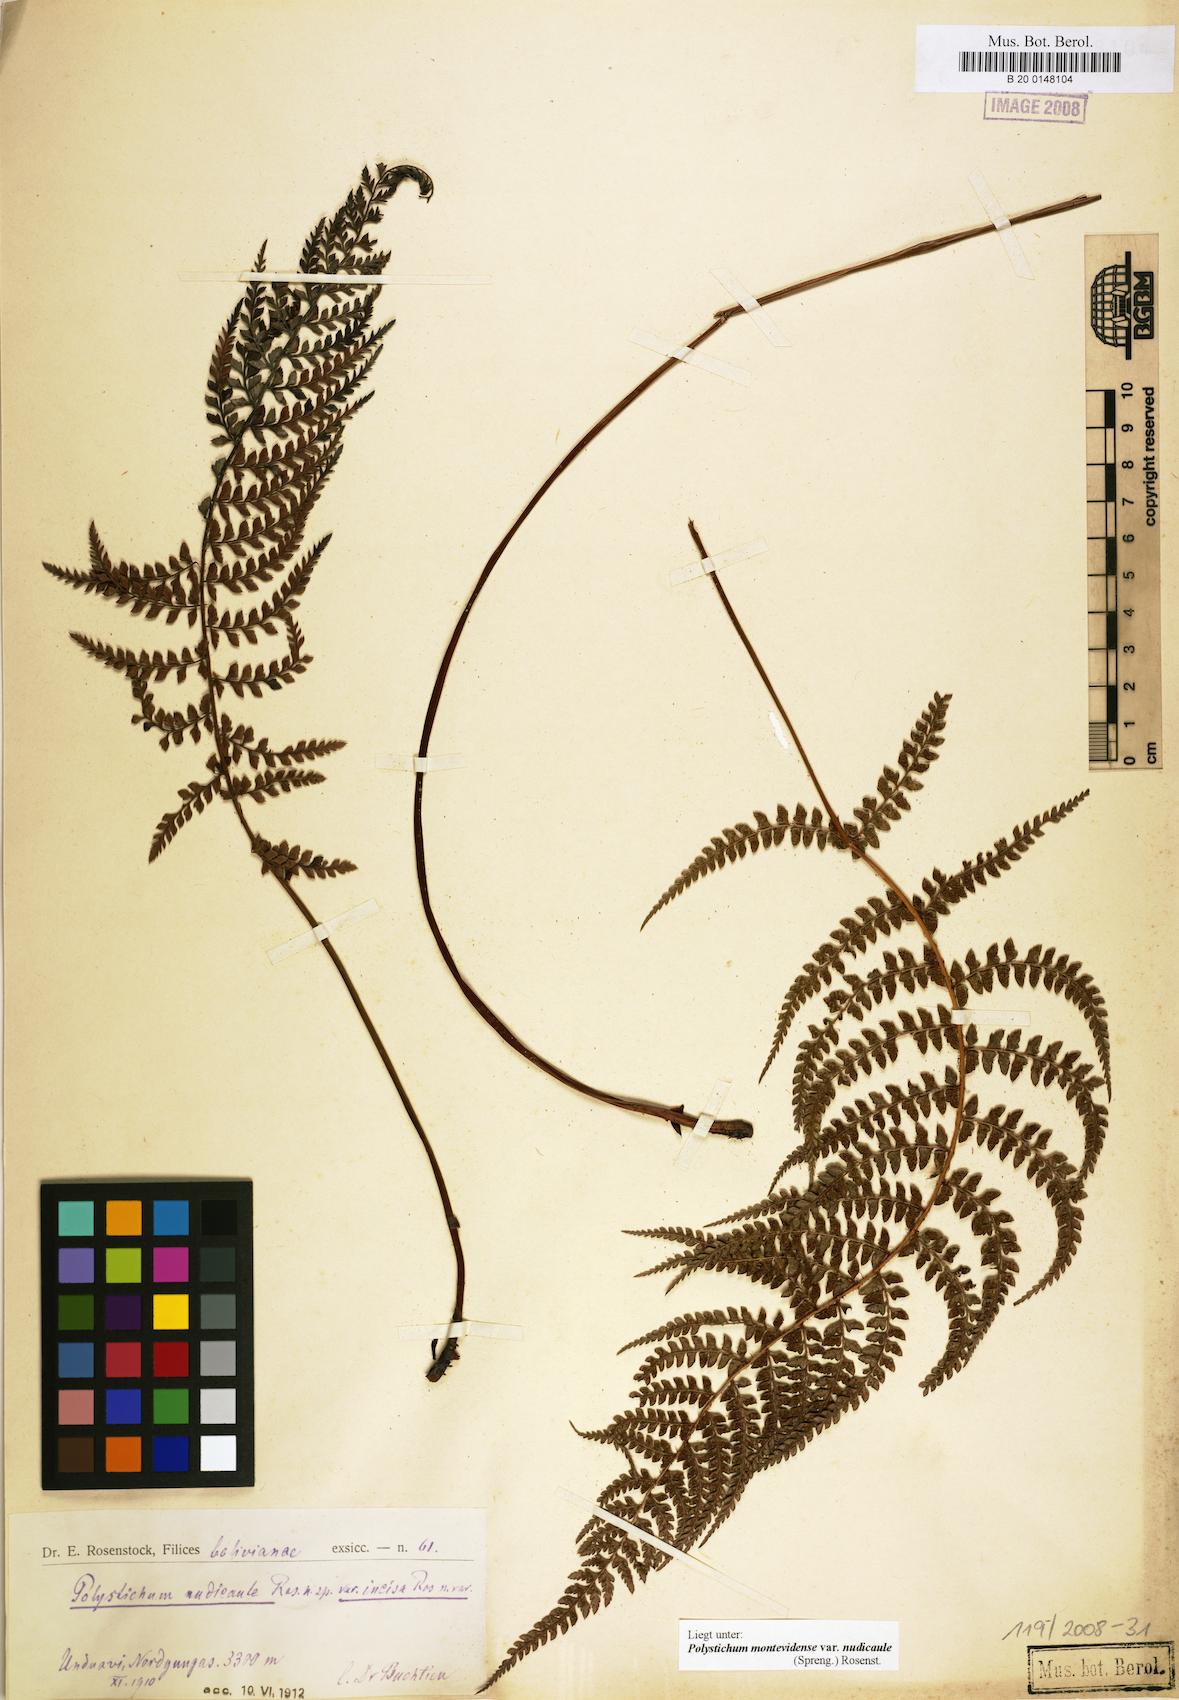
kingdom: Plantae
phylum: Tracheophyta
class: Polypodiopsida
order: Polypodiales
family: Dryopteridaceae
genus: Polystichum
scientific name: Polystichum nudicaule
